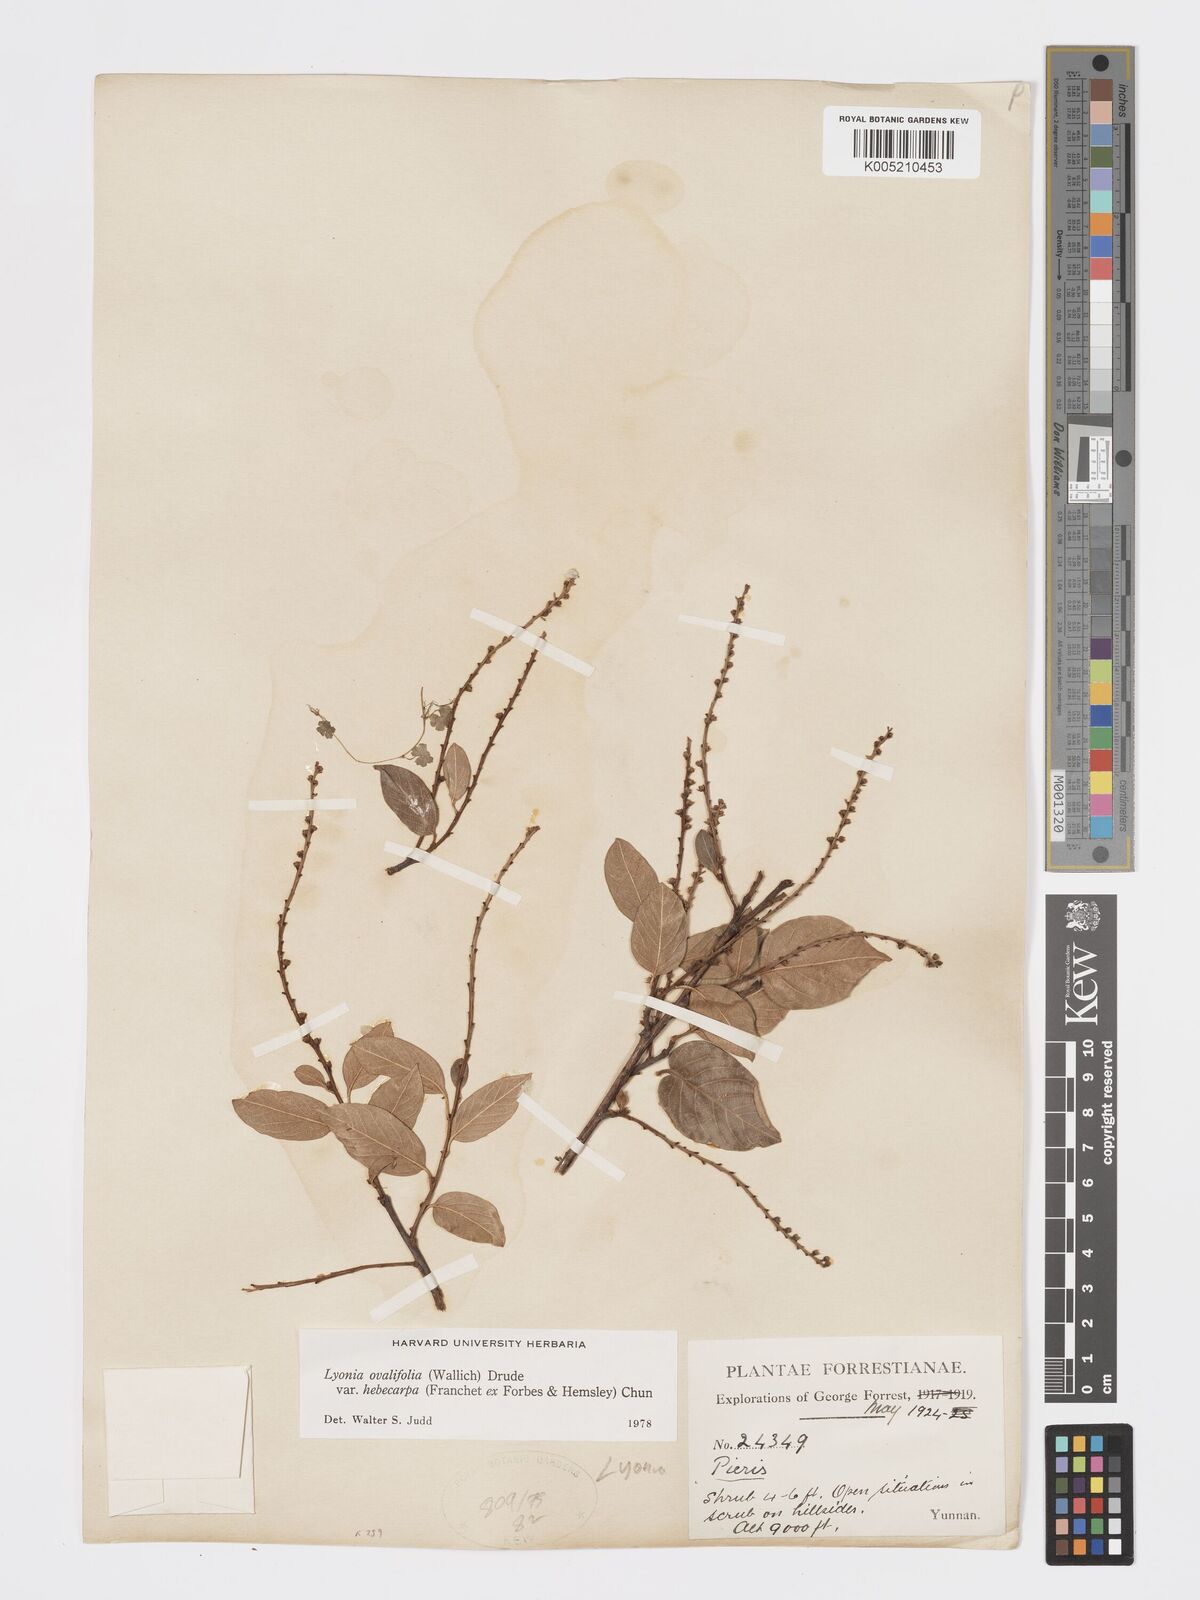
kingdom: Plantae
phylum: Tracheophyta
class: Magnoliopsida
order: Ericales
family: Ericaceae
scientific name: Ericaceae
